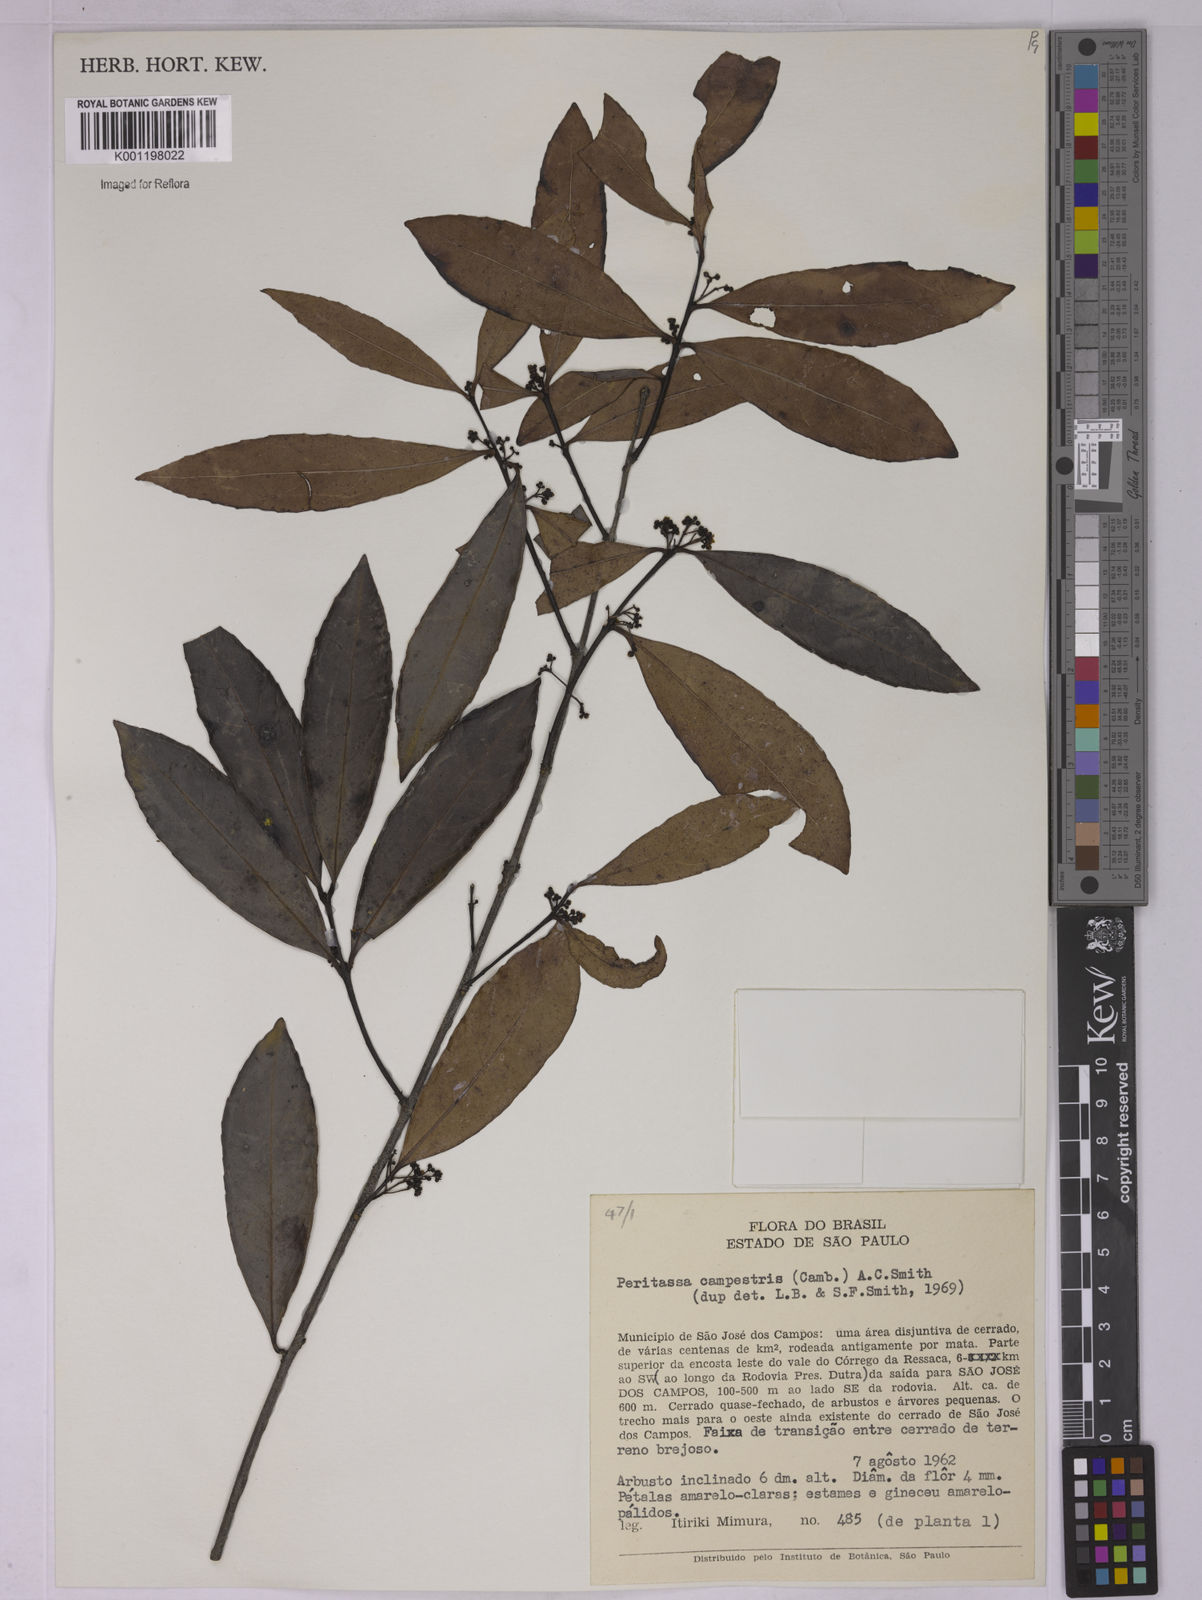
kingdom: Plantae
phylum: Tracheophyta
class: Magnoliopsida
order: Celastrales
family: Celastraceae
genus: Peritassa
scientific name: Peritassa campestris
